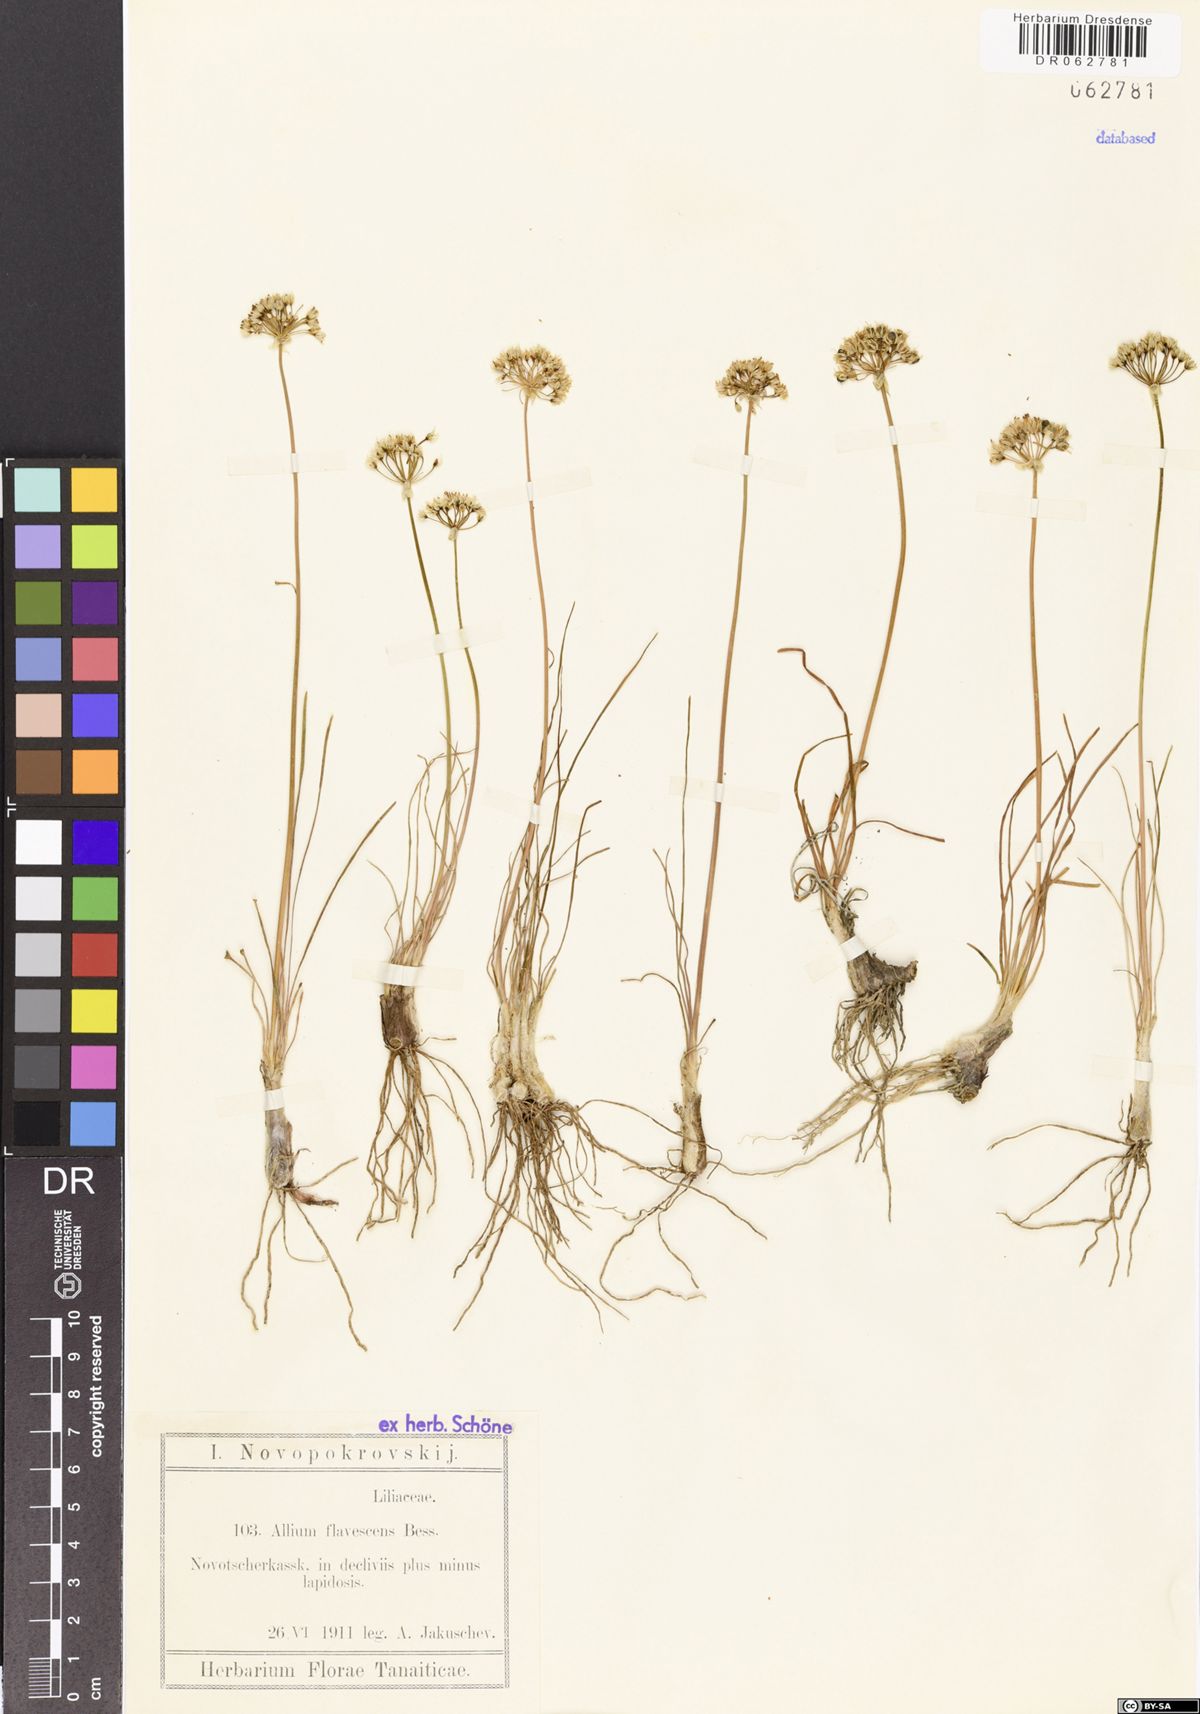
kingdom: Plantae
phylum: Tracheophyta
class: Liliopsida
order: Asparagales
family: Amaryllidaceae
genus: Allium
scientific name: Allium flavescens
